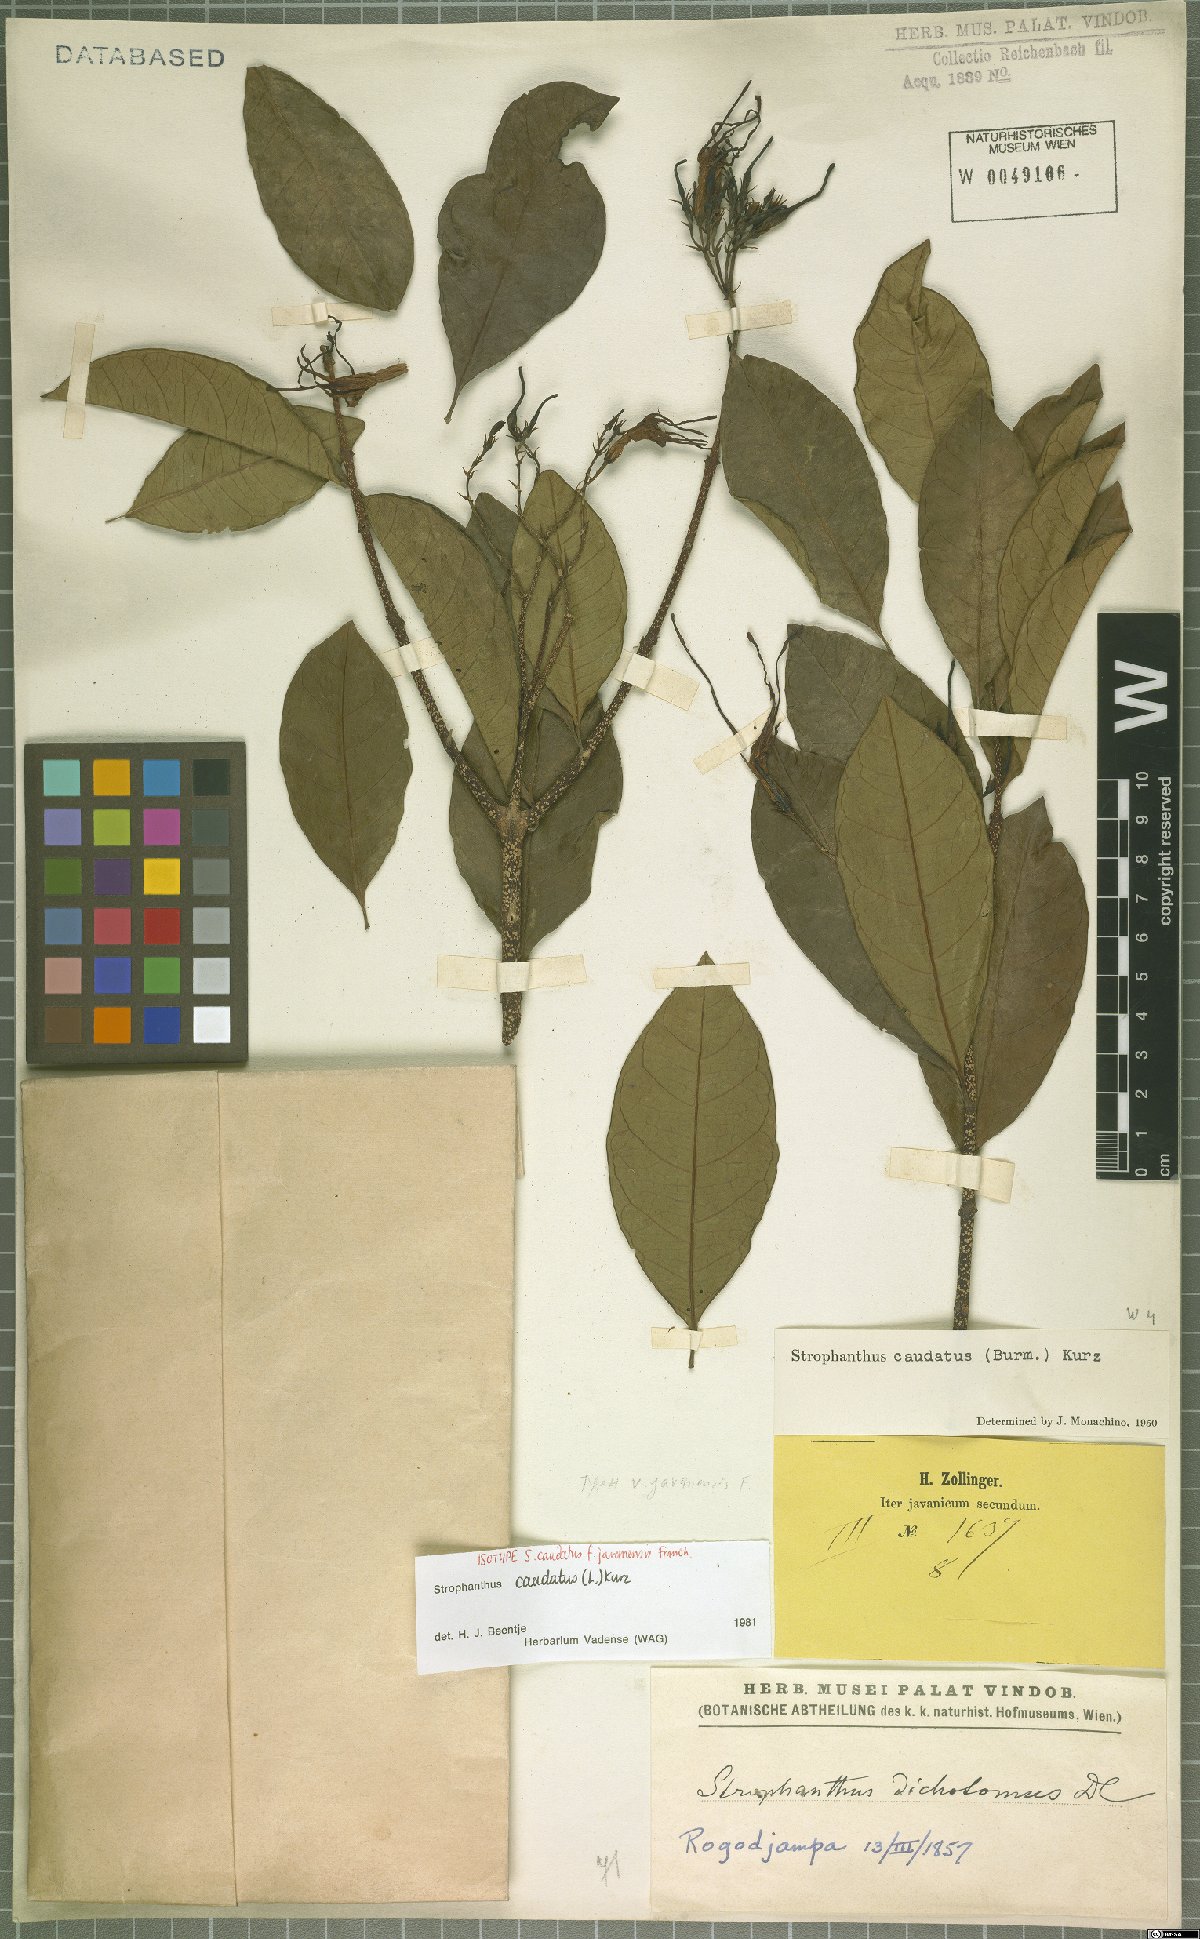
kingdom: Plantae
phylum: Tracheophyta
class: Magnoliopsida
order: Gentianales
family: Apocynaceae
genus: Strophanthus
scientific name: Strophanthus caudatus
